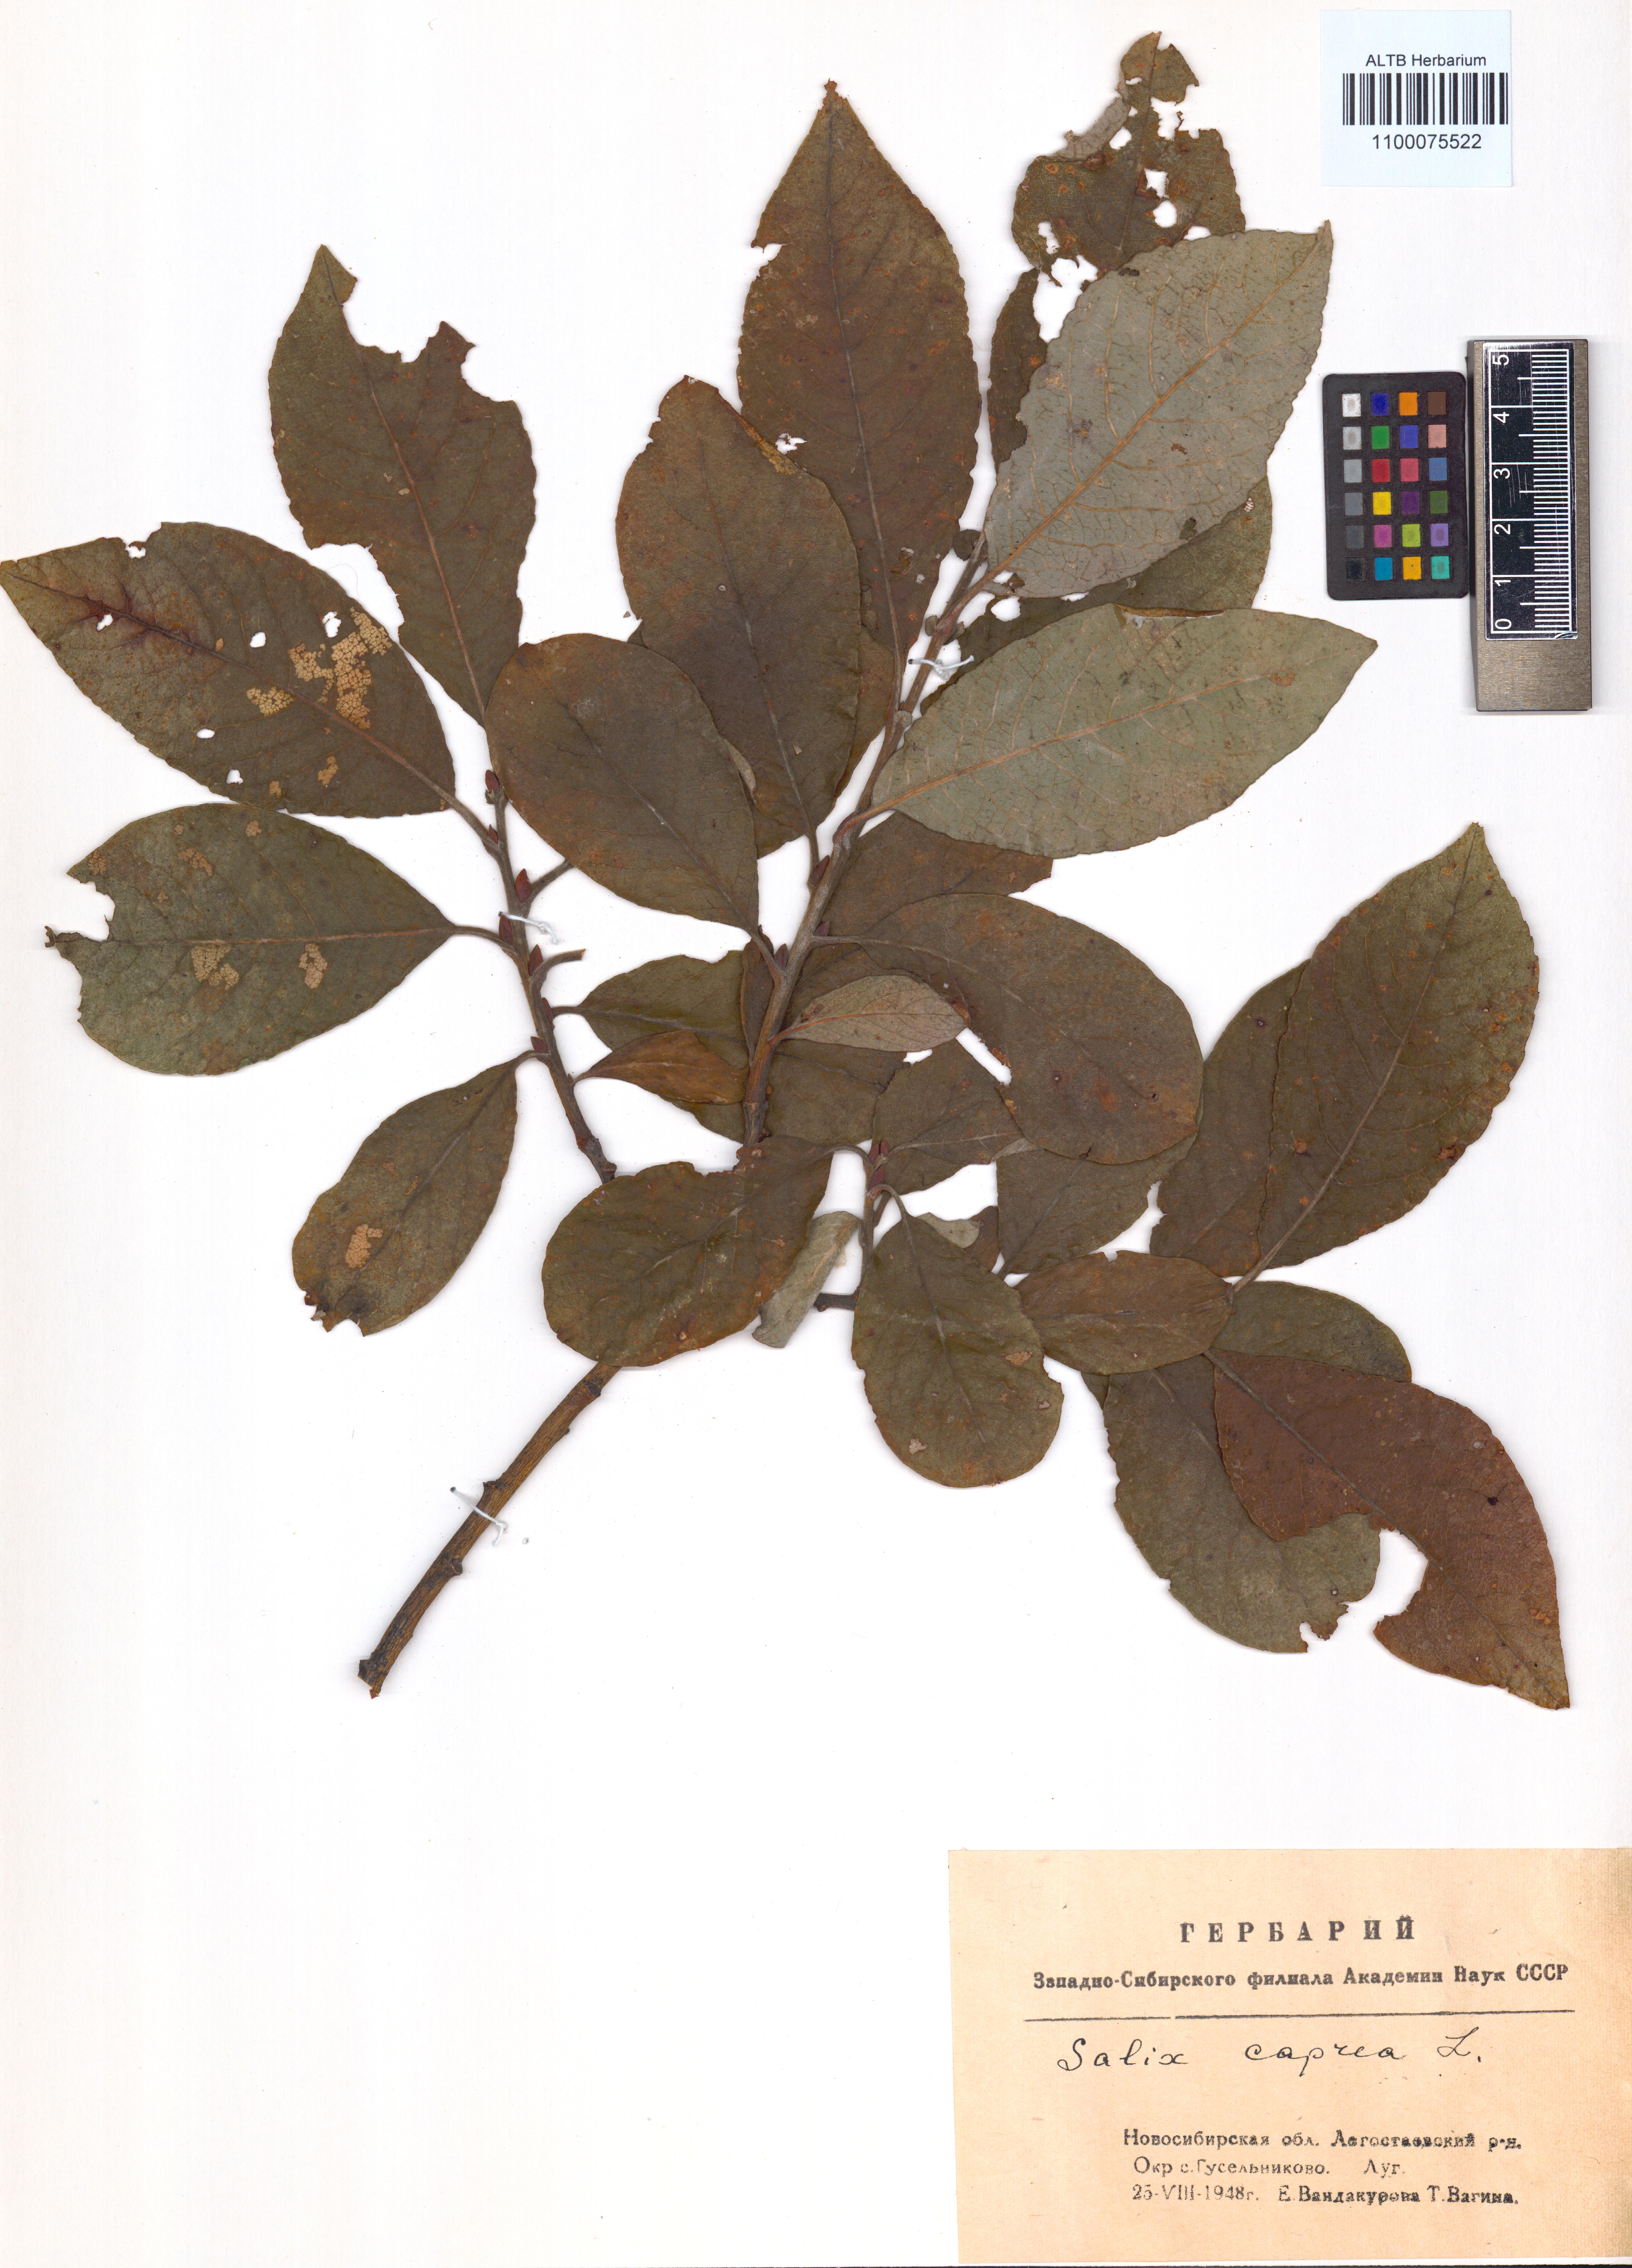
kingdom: Plantae
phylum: Tracheophyta
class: Magnoliopsida
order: Malpighiales
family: Salicaceae
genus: Salix
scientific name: Salix caprea
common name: Goat willow
